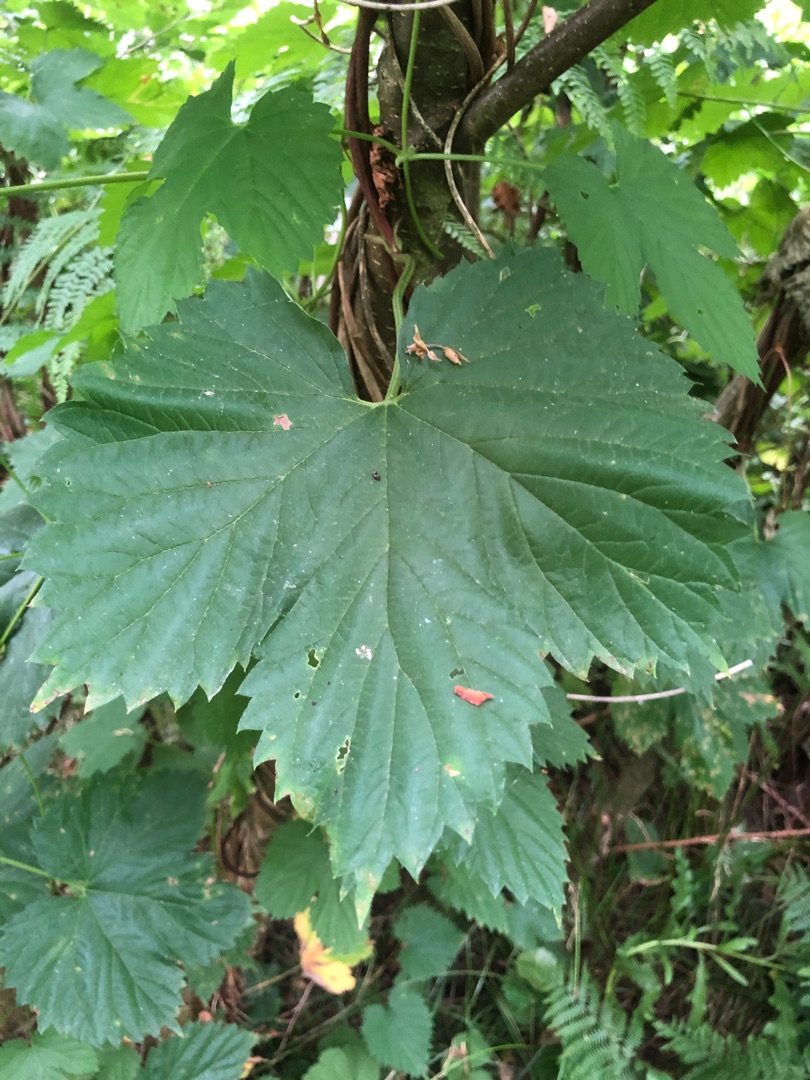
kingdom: Plantae
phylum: Tracheophyta
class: Magnoliopsida
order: Rosales
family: Cannabaceae
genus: Humulus
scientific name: Humulus lupulus
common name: Humle
